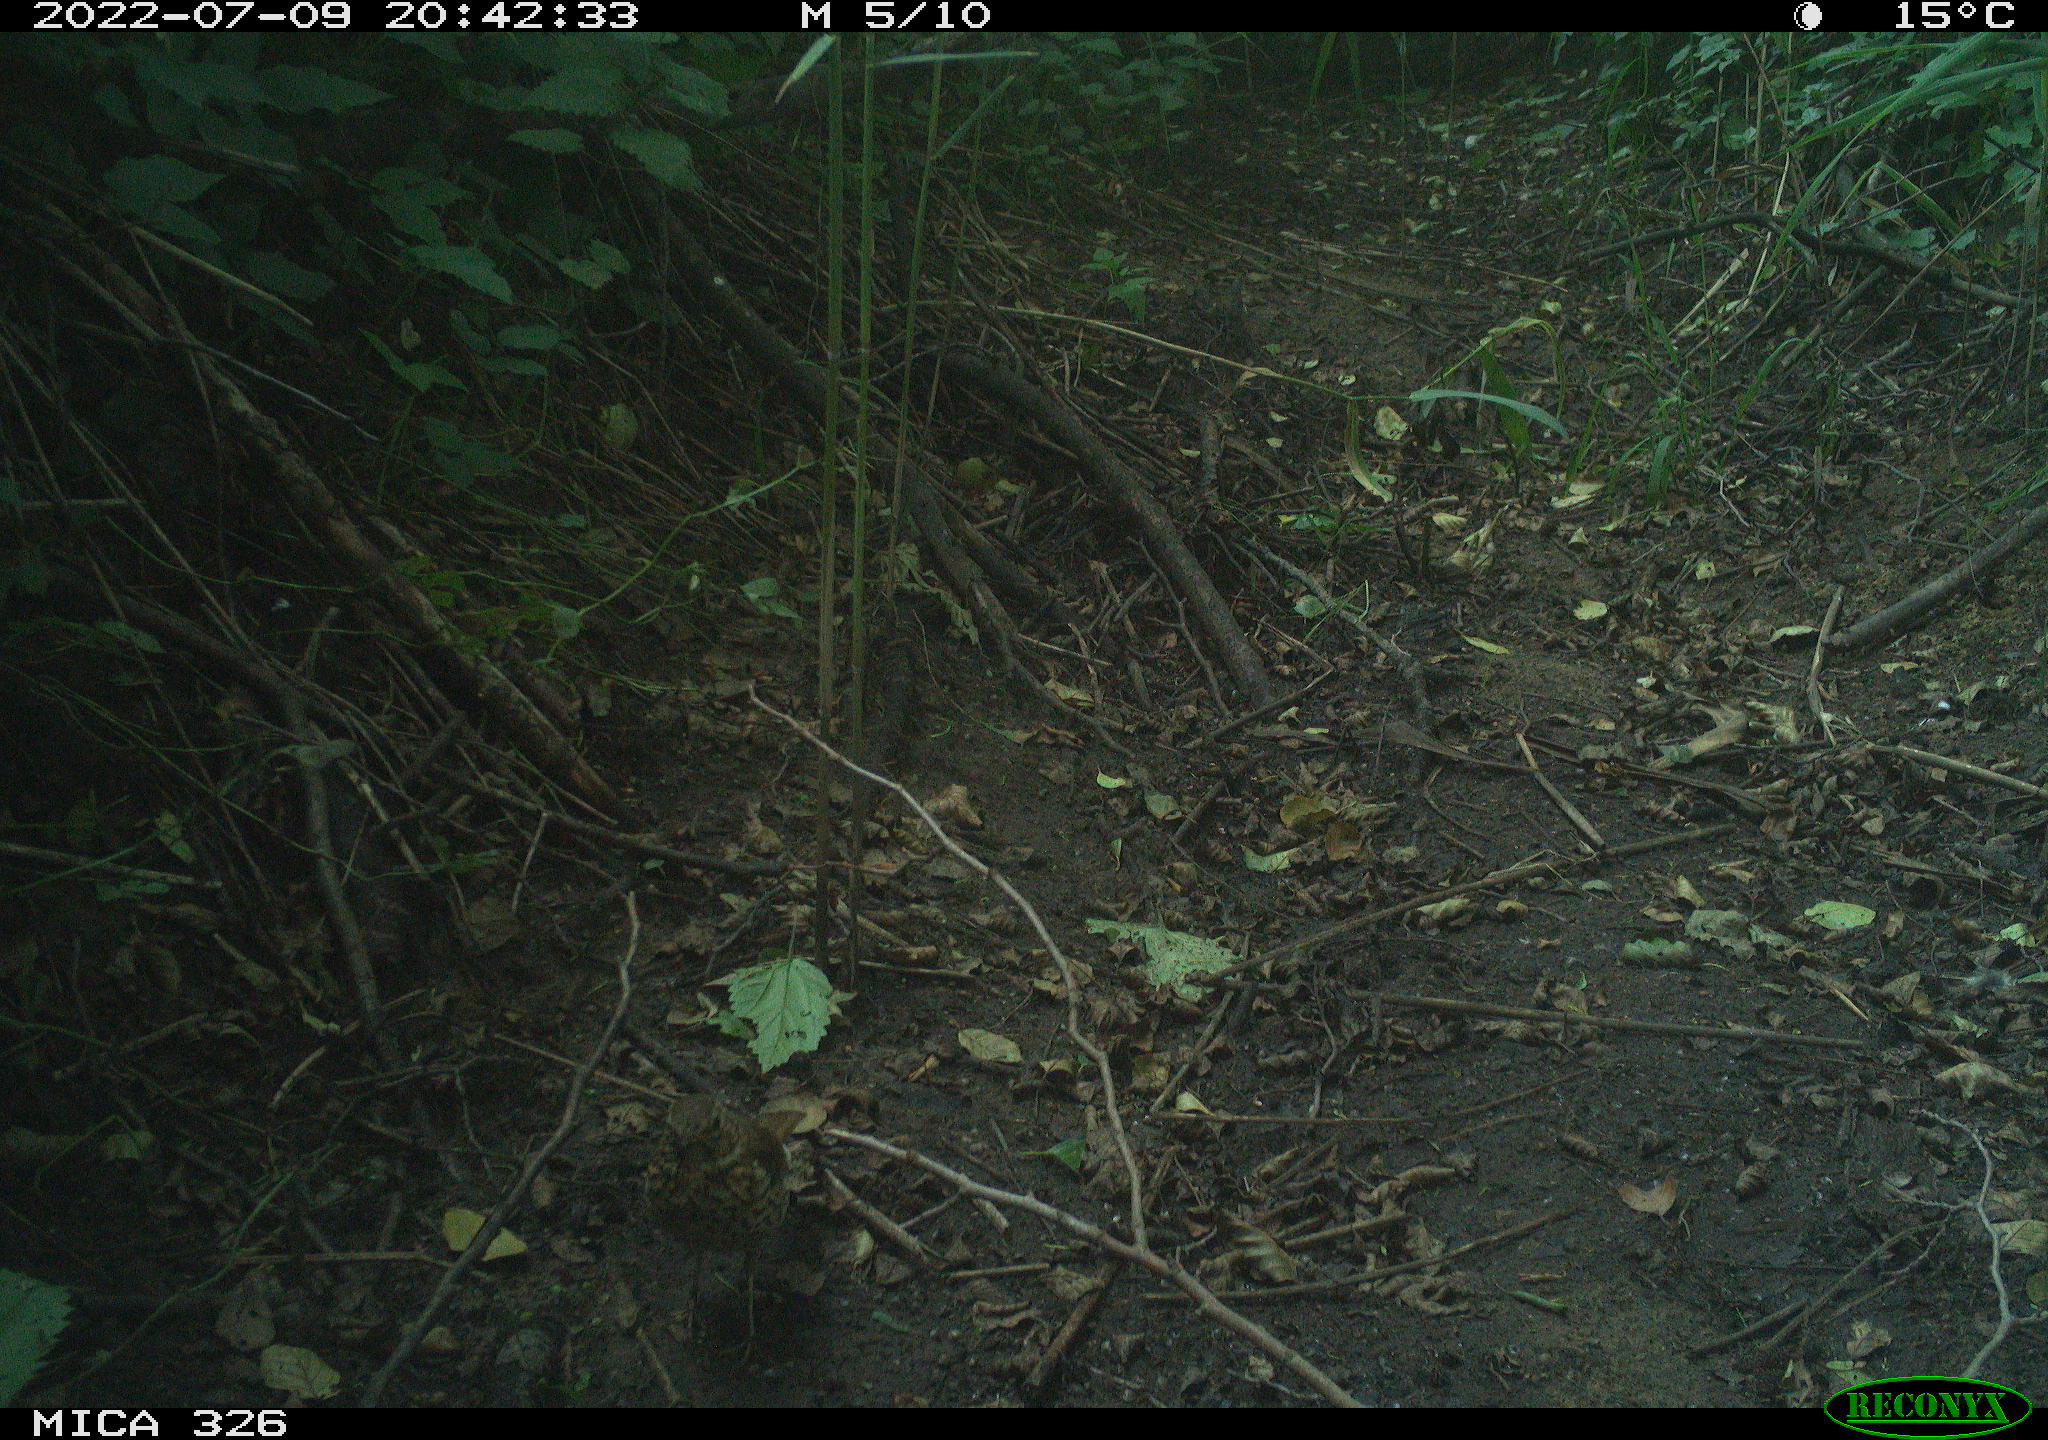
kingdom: Animalia
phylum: Chordata
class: Aves
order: Passeriformes
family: Turdidae
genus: Turdus
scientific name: Turdus philomelos
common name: Song thrush
